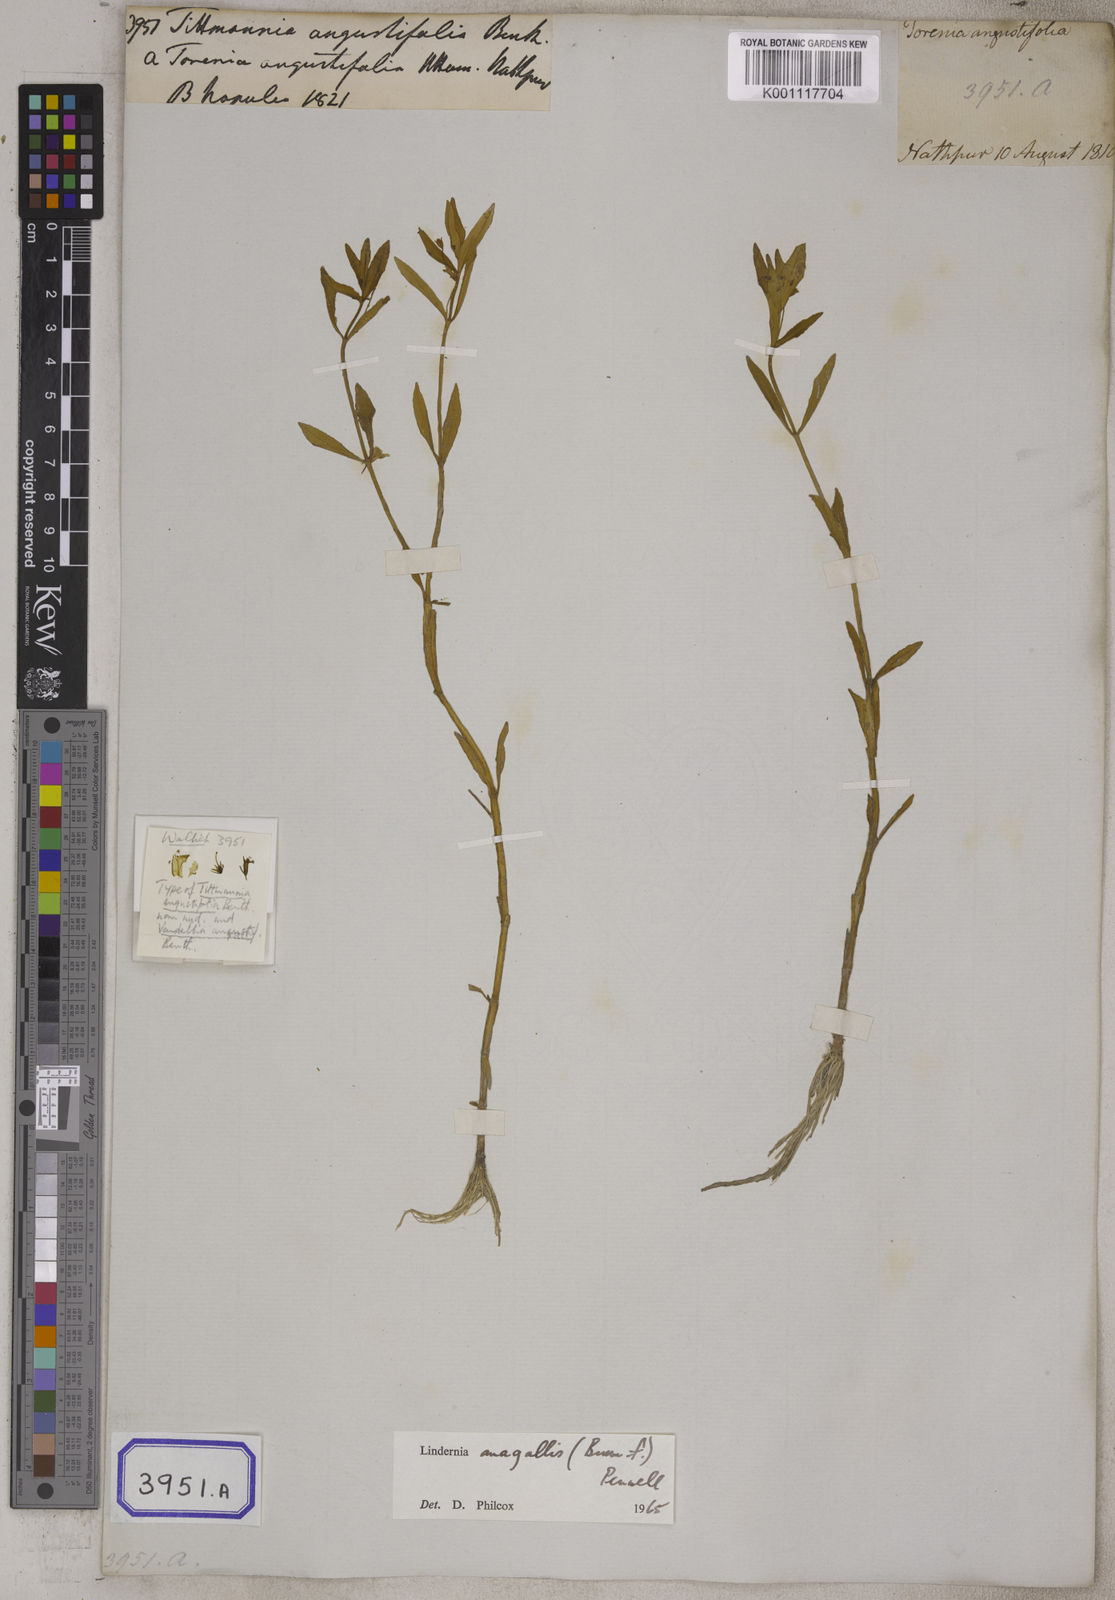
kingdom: Plantae
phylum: Tracheophyta
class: Magnoliopsida
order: Lamiales
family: Linderniaceae
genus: Vandellia
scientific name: Vandellia micrantha
